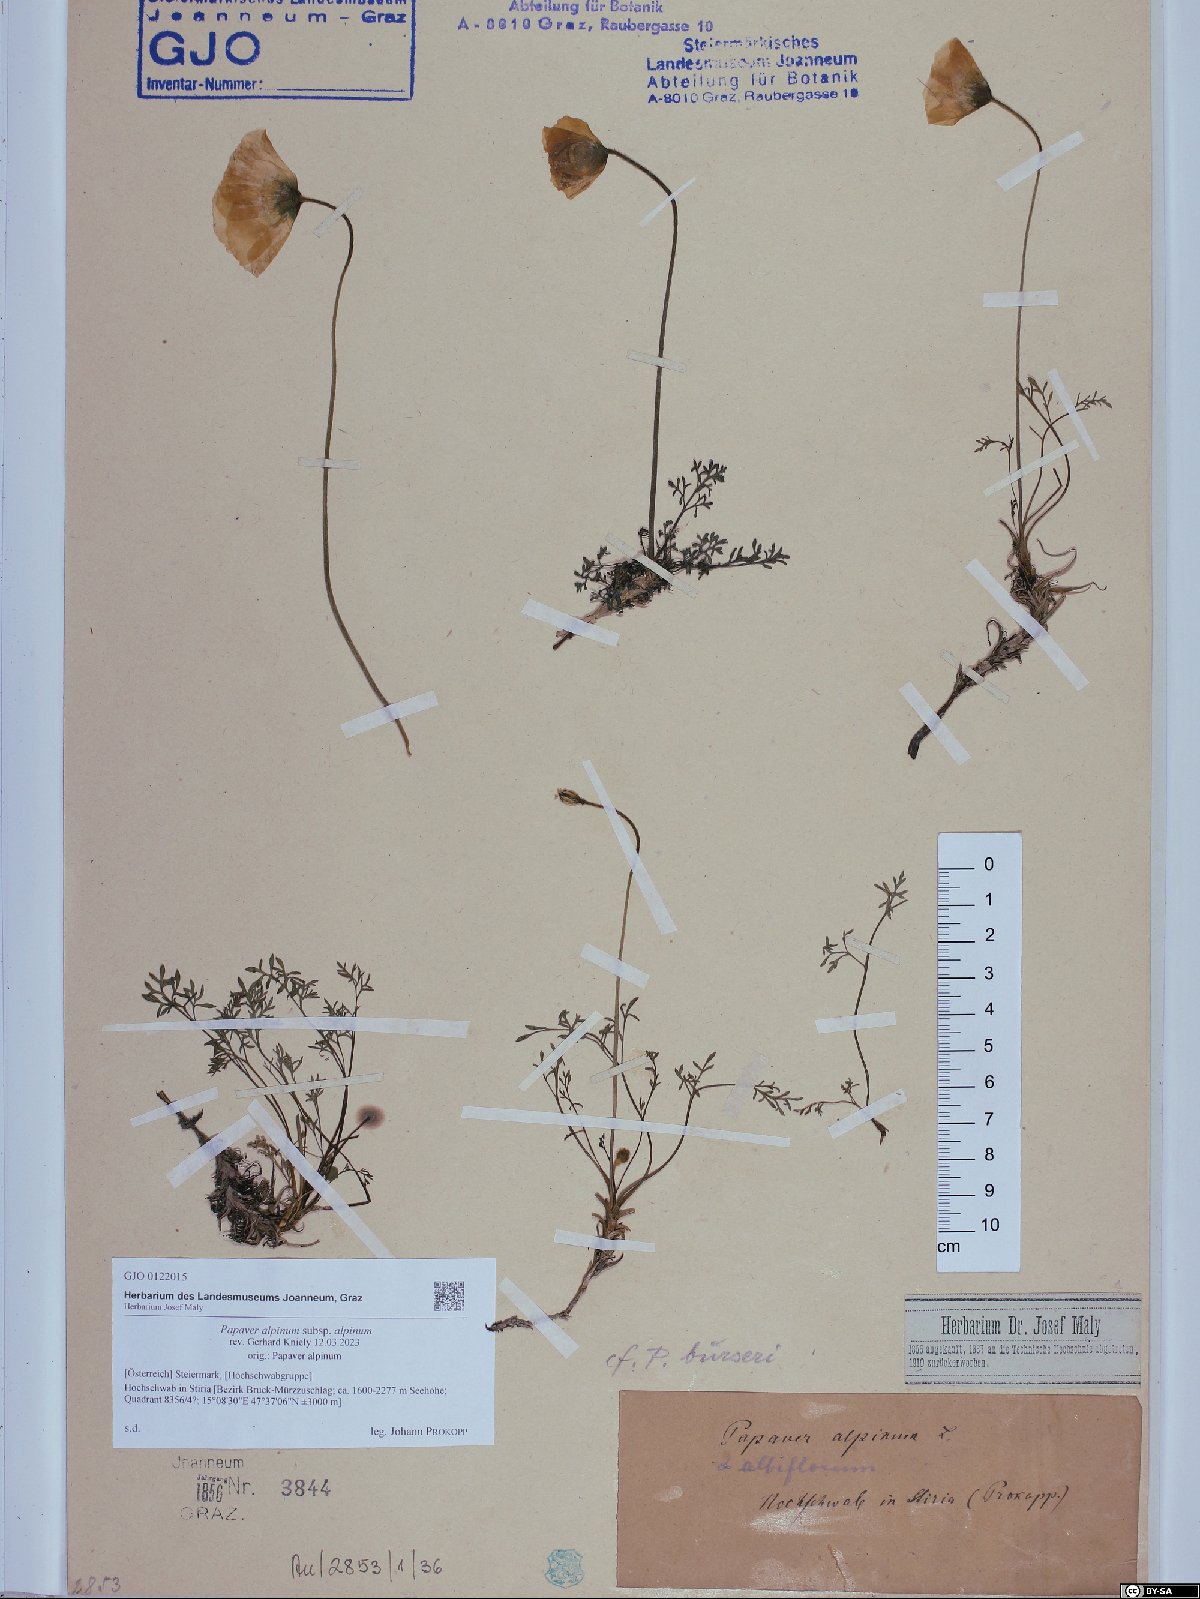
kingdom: Plantae
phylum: Tracheophyta
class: Magnoliopsida
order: Ranunculales
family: Papaveraceae
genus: Papaver
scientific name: Papaver alpinum
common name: Austrian poppy
